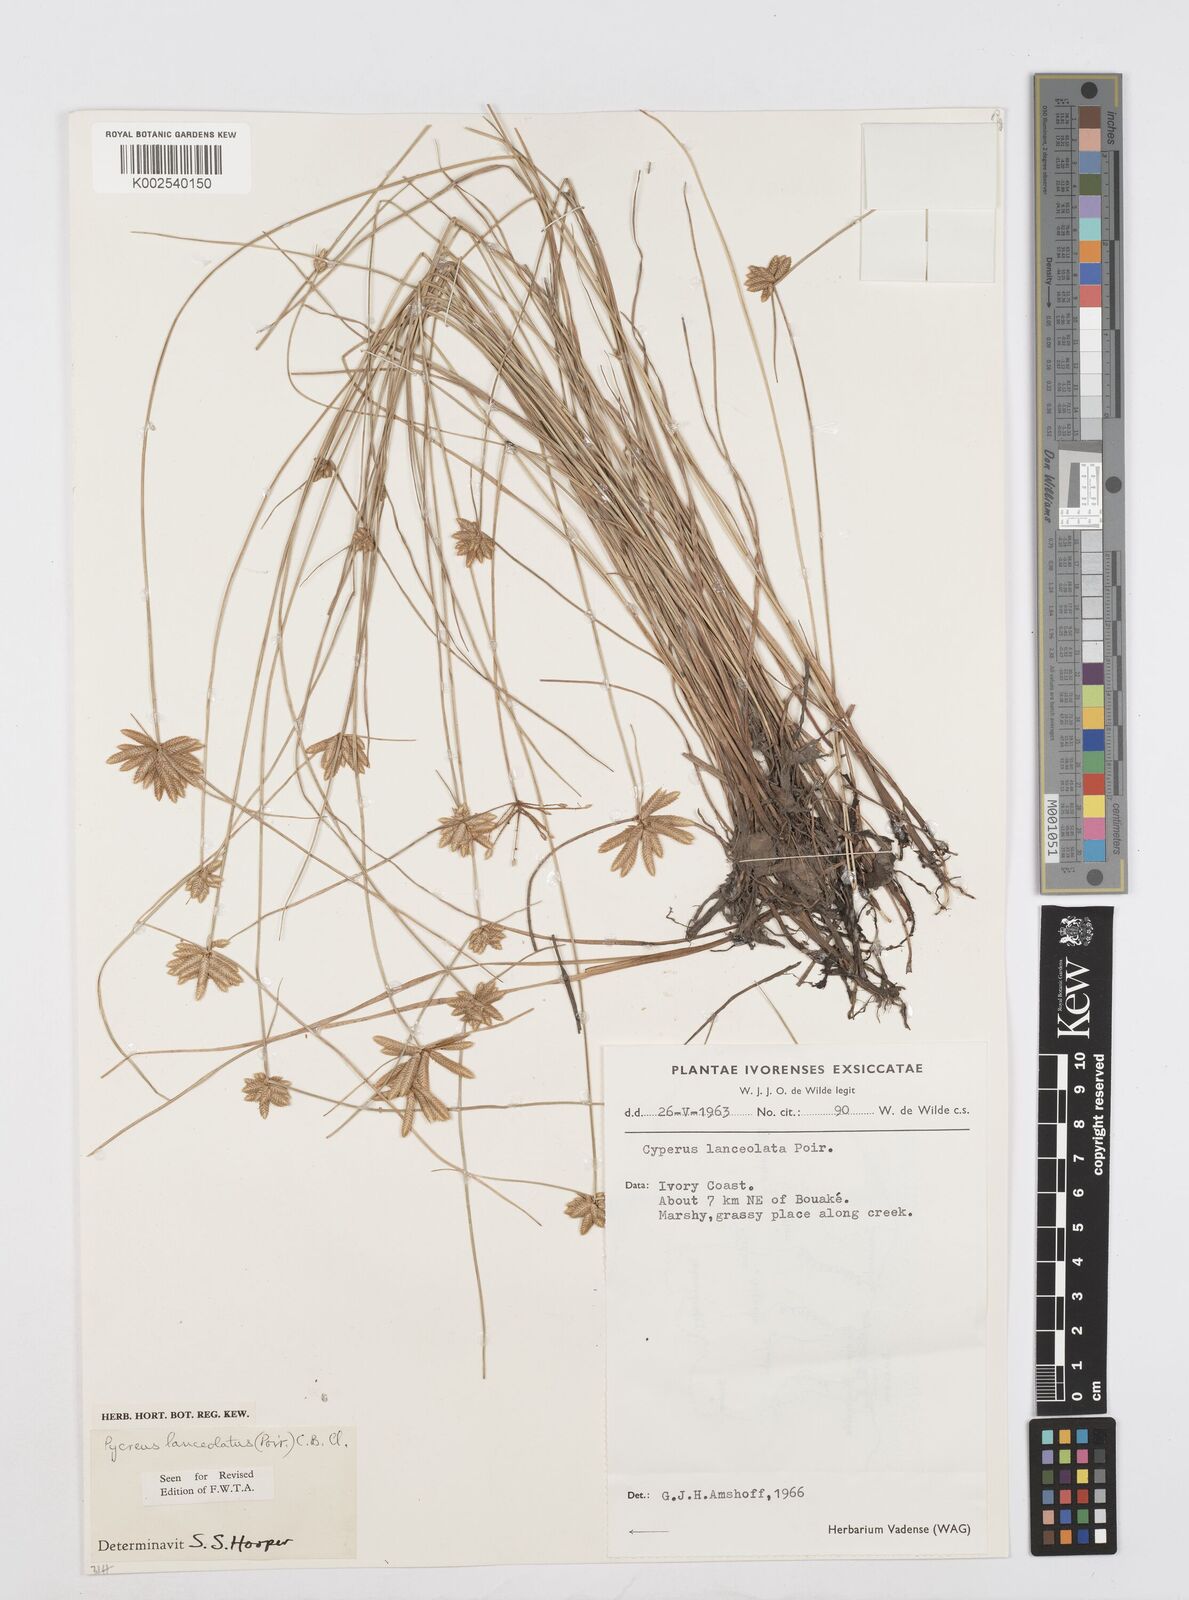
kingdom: Plantae
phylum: Tracheophyta
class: Liliopsida
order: Poales
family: Cyperaceae
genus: Cyperus
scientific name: Cyperus
